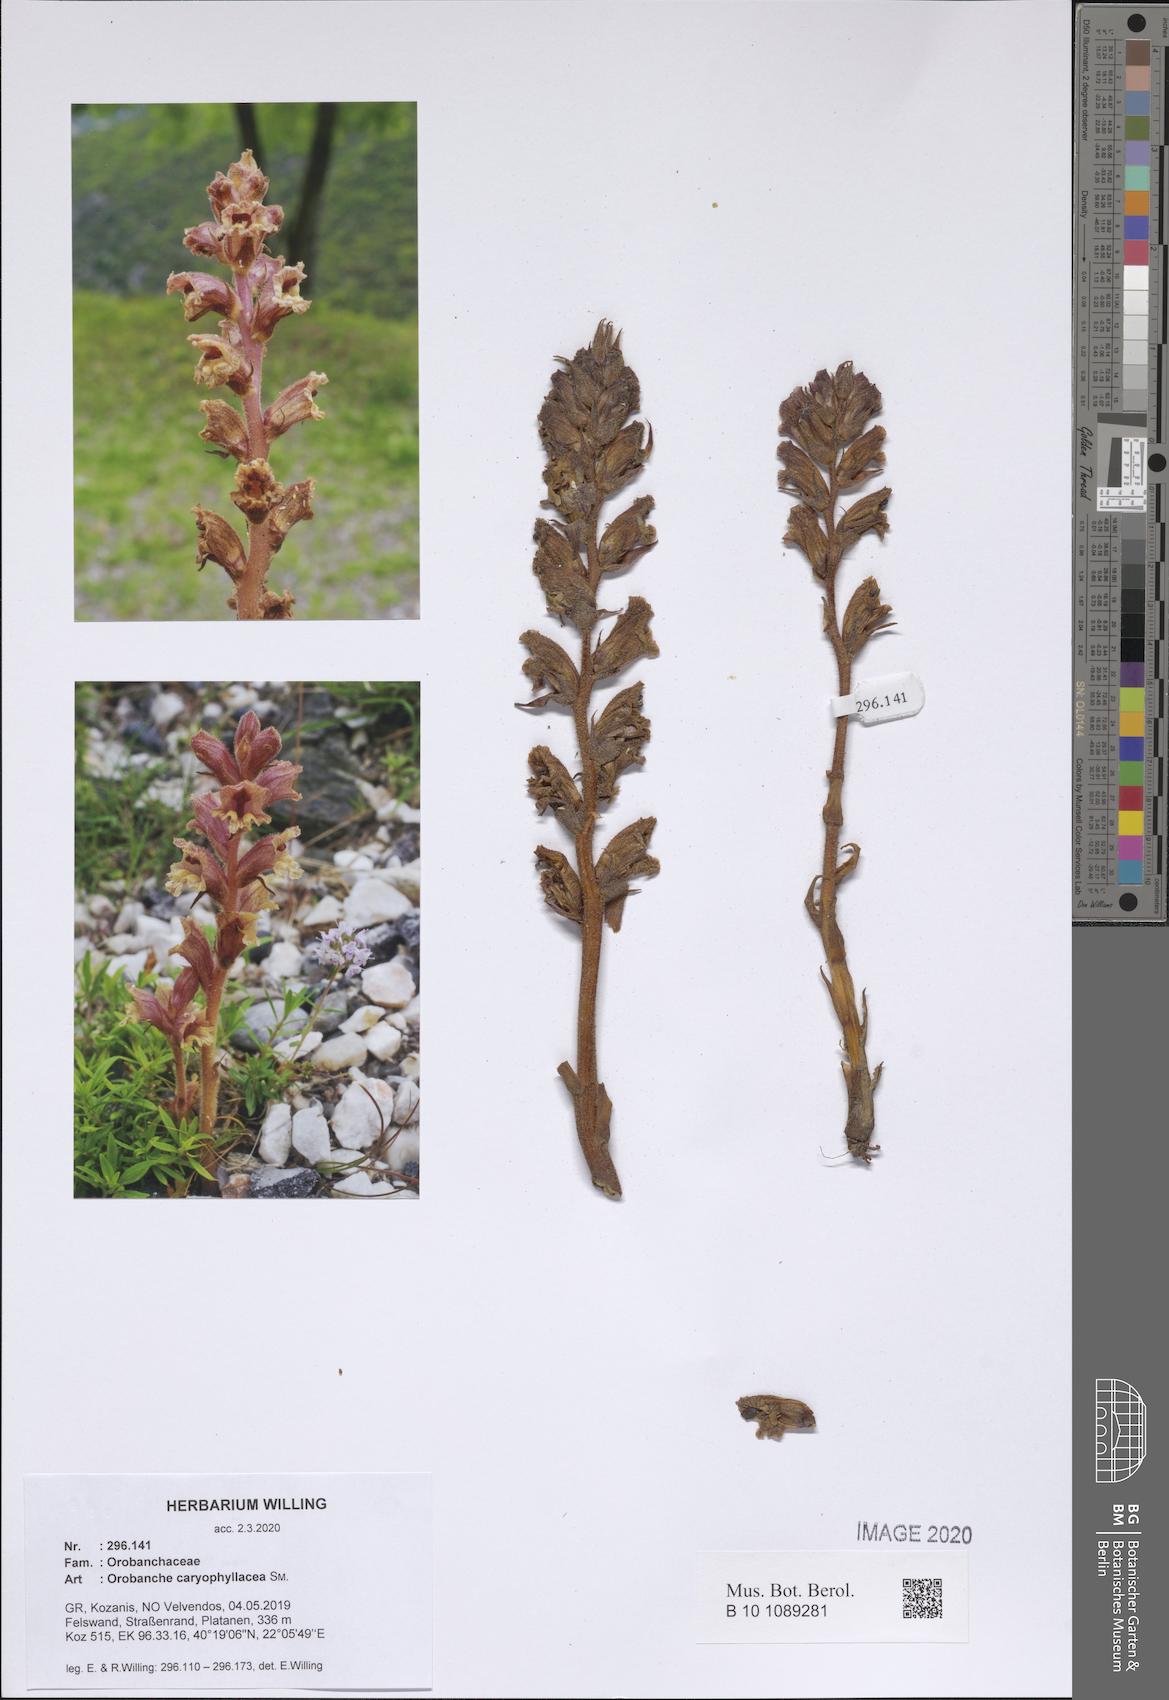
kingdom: Plantae
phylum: Tracheophyta
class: Magnoliopsida
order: Lamiales
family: Orobanchaceae
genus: Orobanche
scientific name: Orobanche caryophyllacea
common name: Bedstraw broomrape
